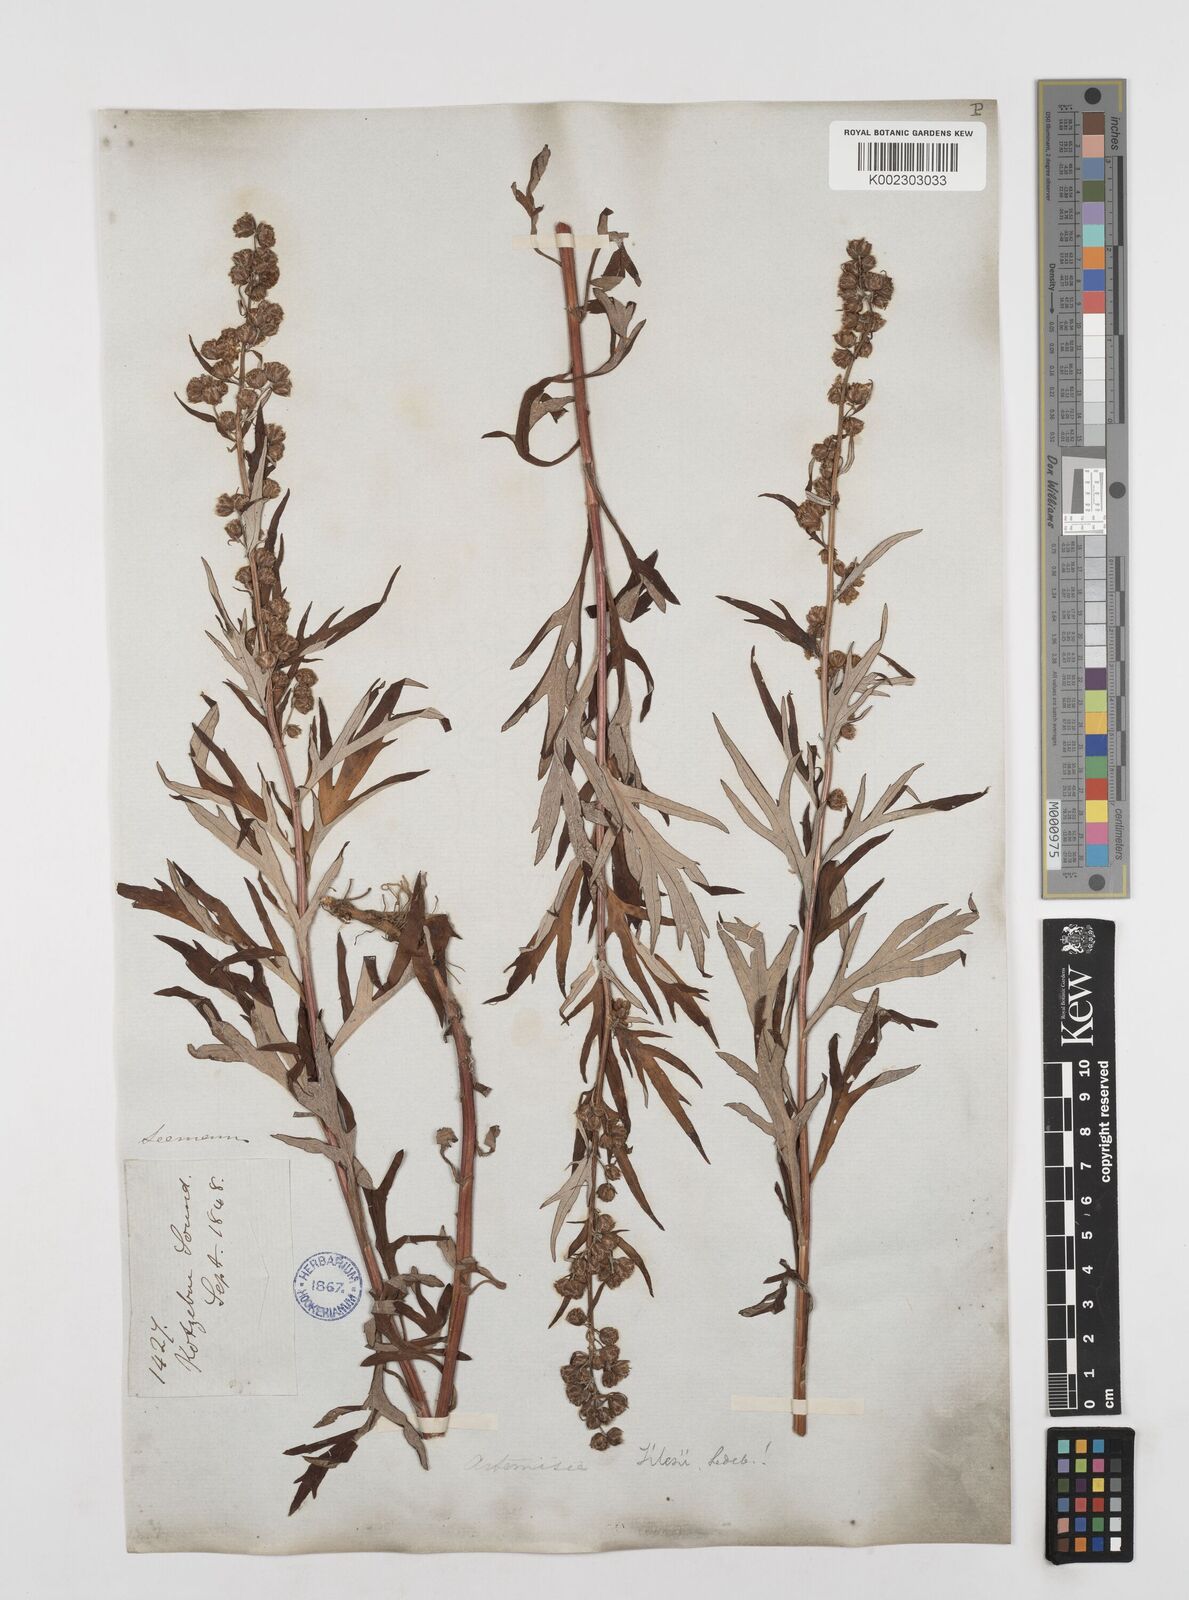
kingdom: Plantae
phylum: Tracheophyta
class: Magnoliopsida
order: Asterales
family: Asteraceae
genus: Artemisia
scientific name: Artemisia tilesii
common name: Aleutian mugwort
